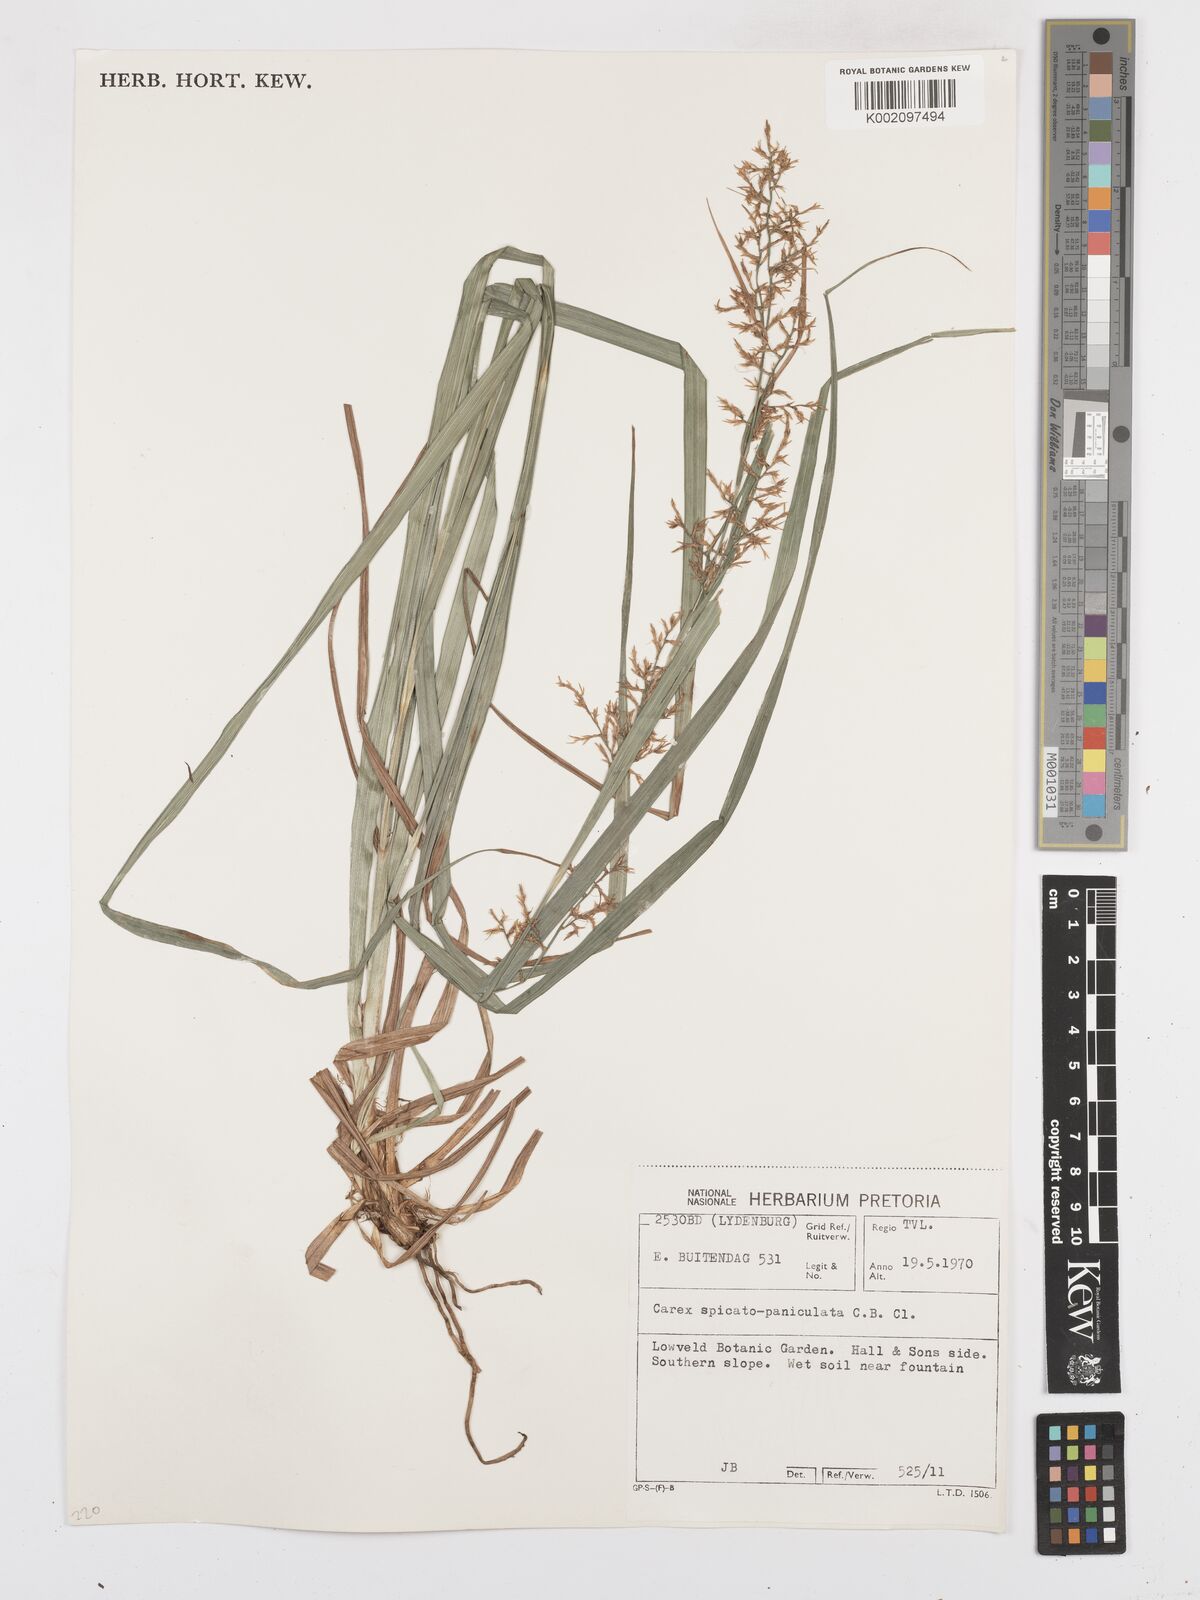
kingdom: Plantae
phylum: Tracheophyta
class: Liliopsida
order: Poales
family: Cyperaceae
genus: Carex
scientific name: Carex spicatopaniculata
